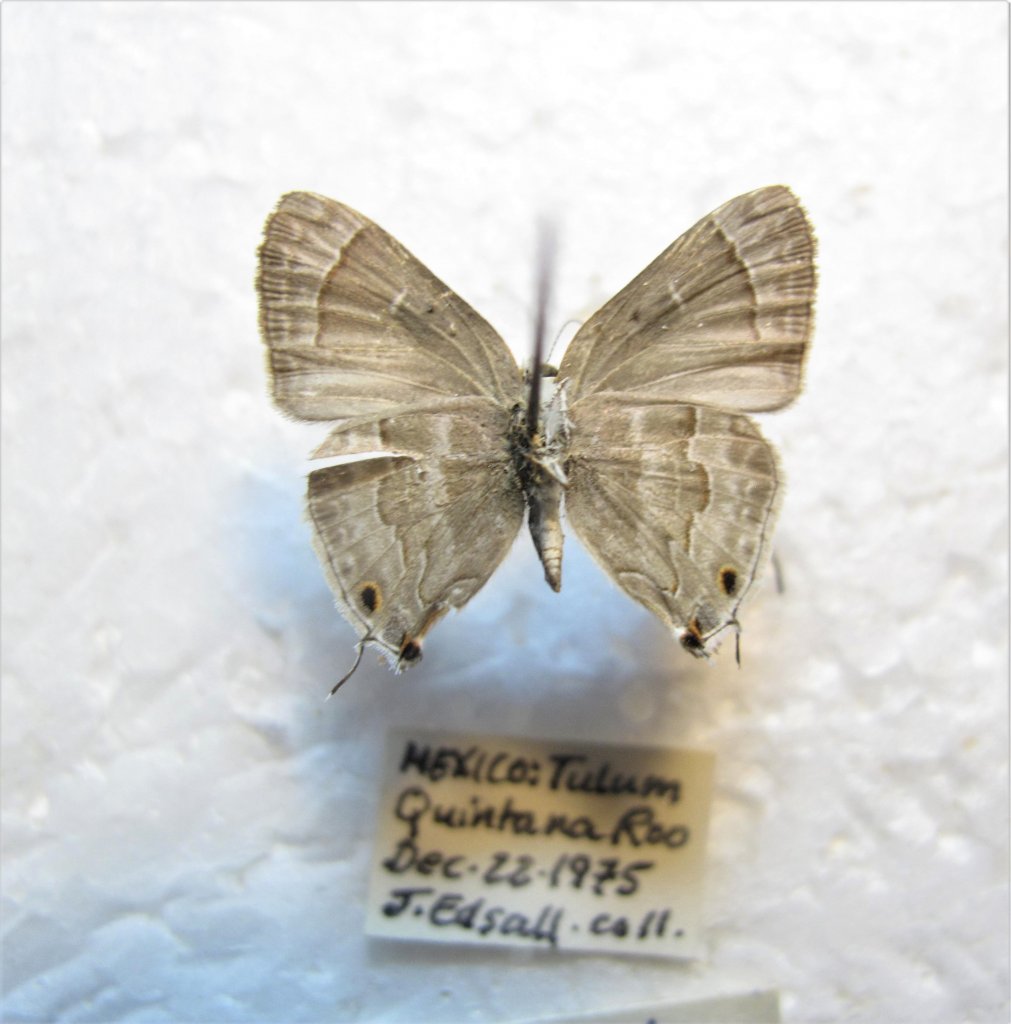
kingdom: Animalia
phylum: Arthropoda
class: Insecta
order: Lepidoptera
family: Lycaenidae
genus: Thecla
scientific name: Thecla yojoa
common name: Yojoa Scrub-Hairstreak
